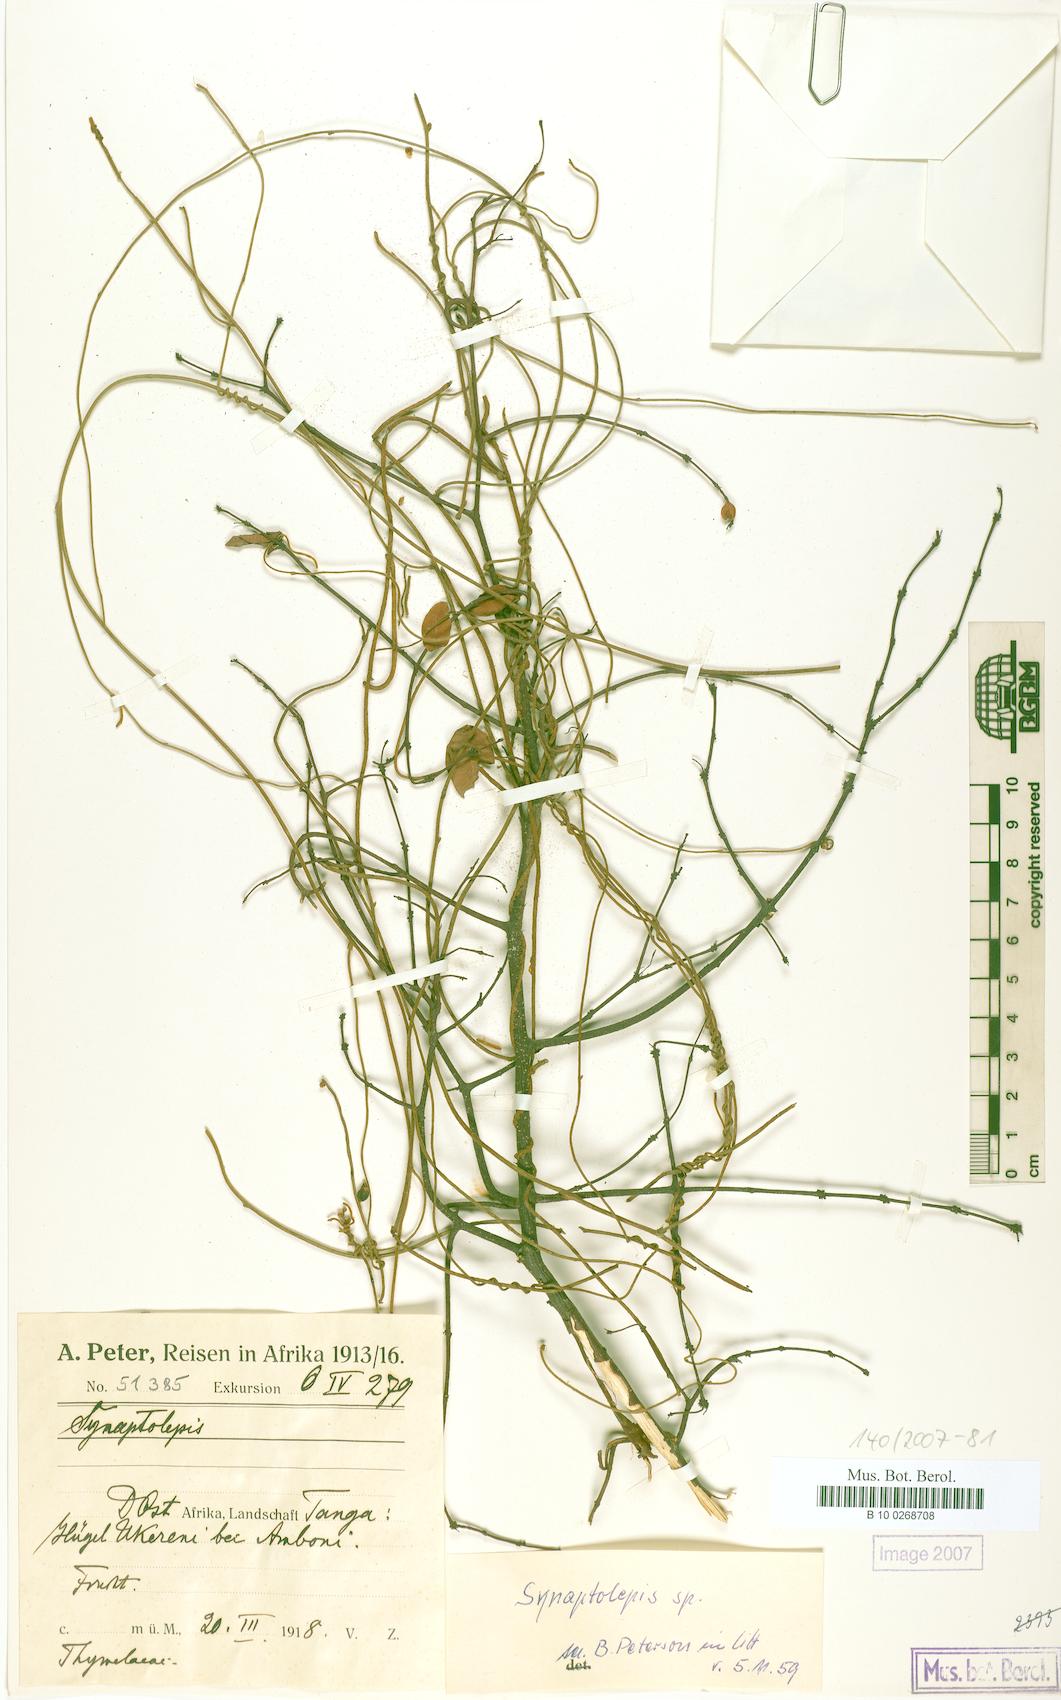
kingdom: Plantae
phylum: Tracheophyta
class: Magnoliopsida
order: Malvales
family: Thymelaeaceae
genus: Synaptolepis
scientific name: Synaptolepis
